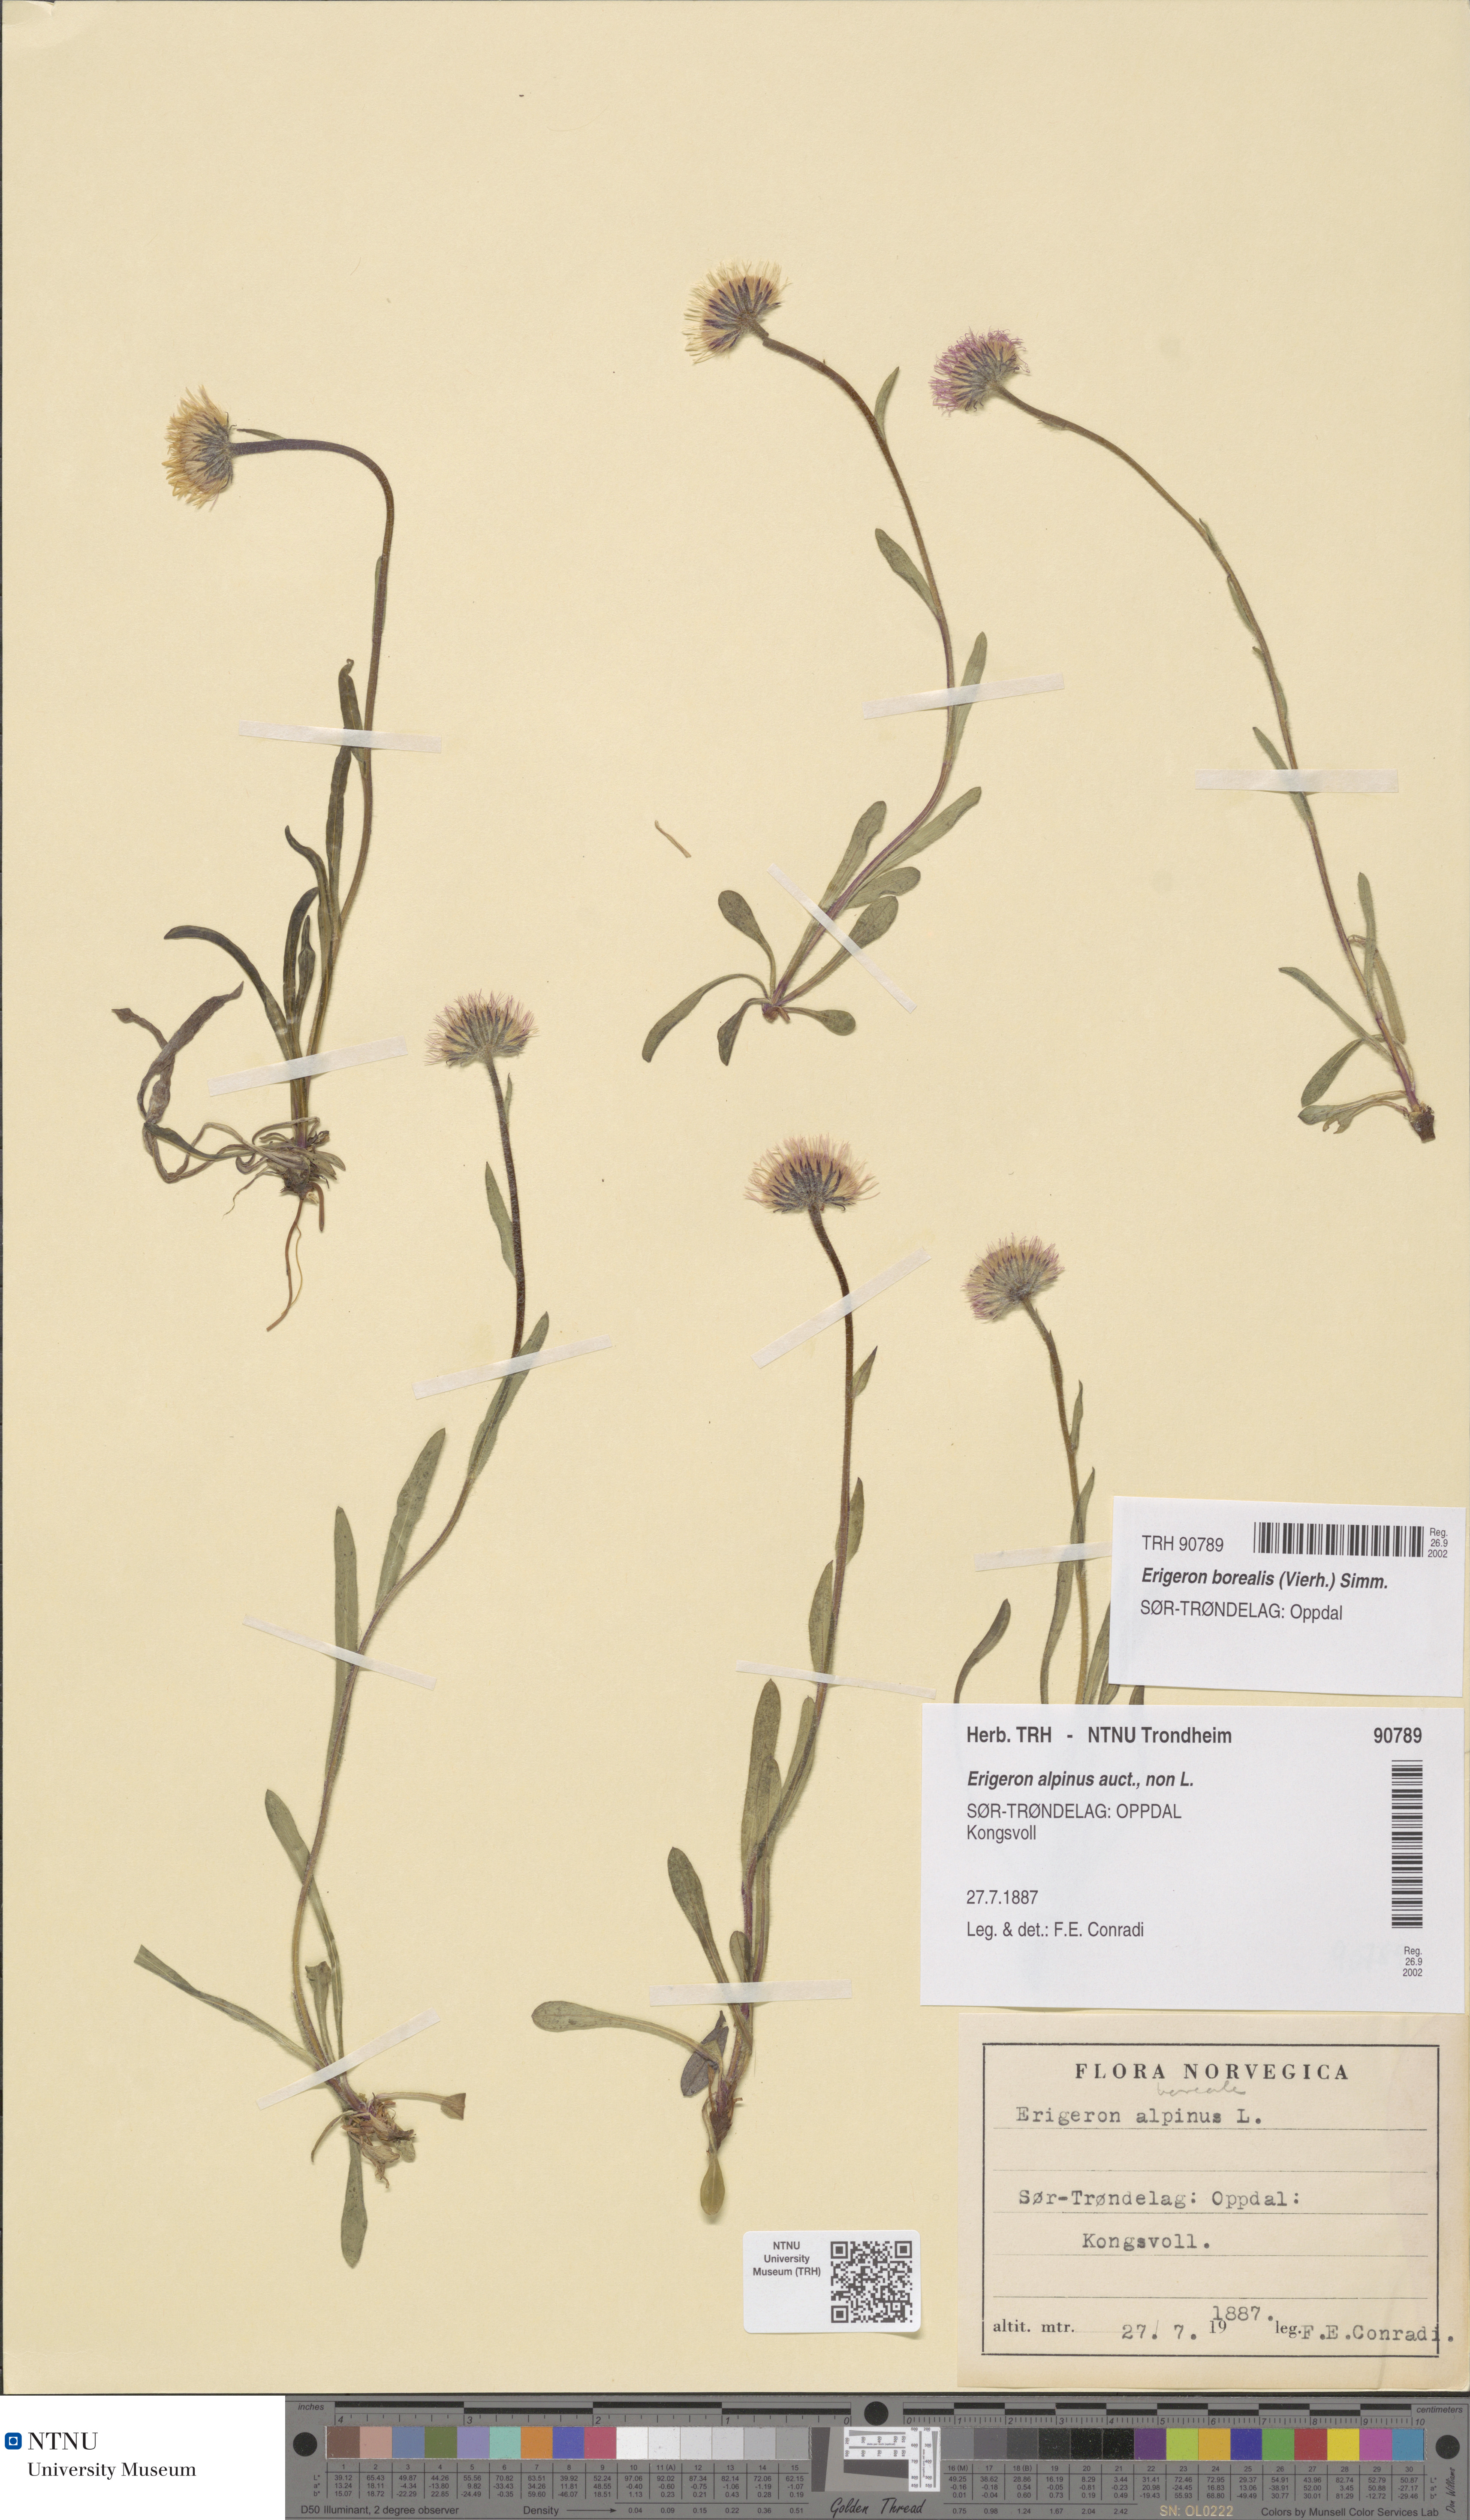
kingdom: Plantae
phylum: Tracheophyta
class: Magnoliopsida
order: Asterales
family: Asteraceae
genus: Erigeron
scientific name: Erigeron borealis
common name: Alpine fleabane
